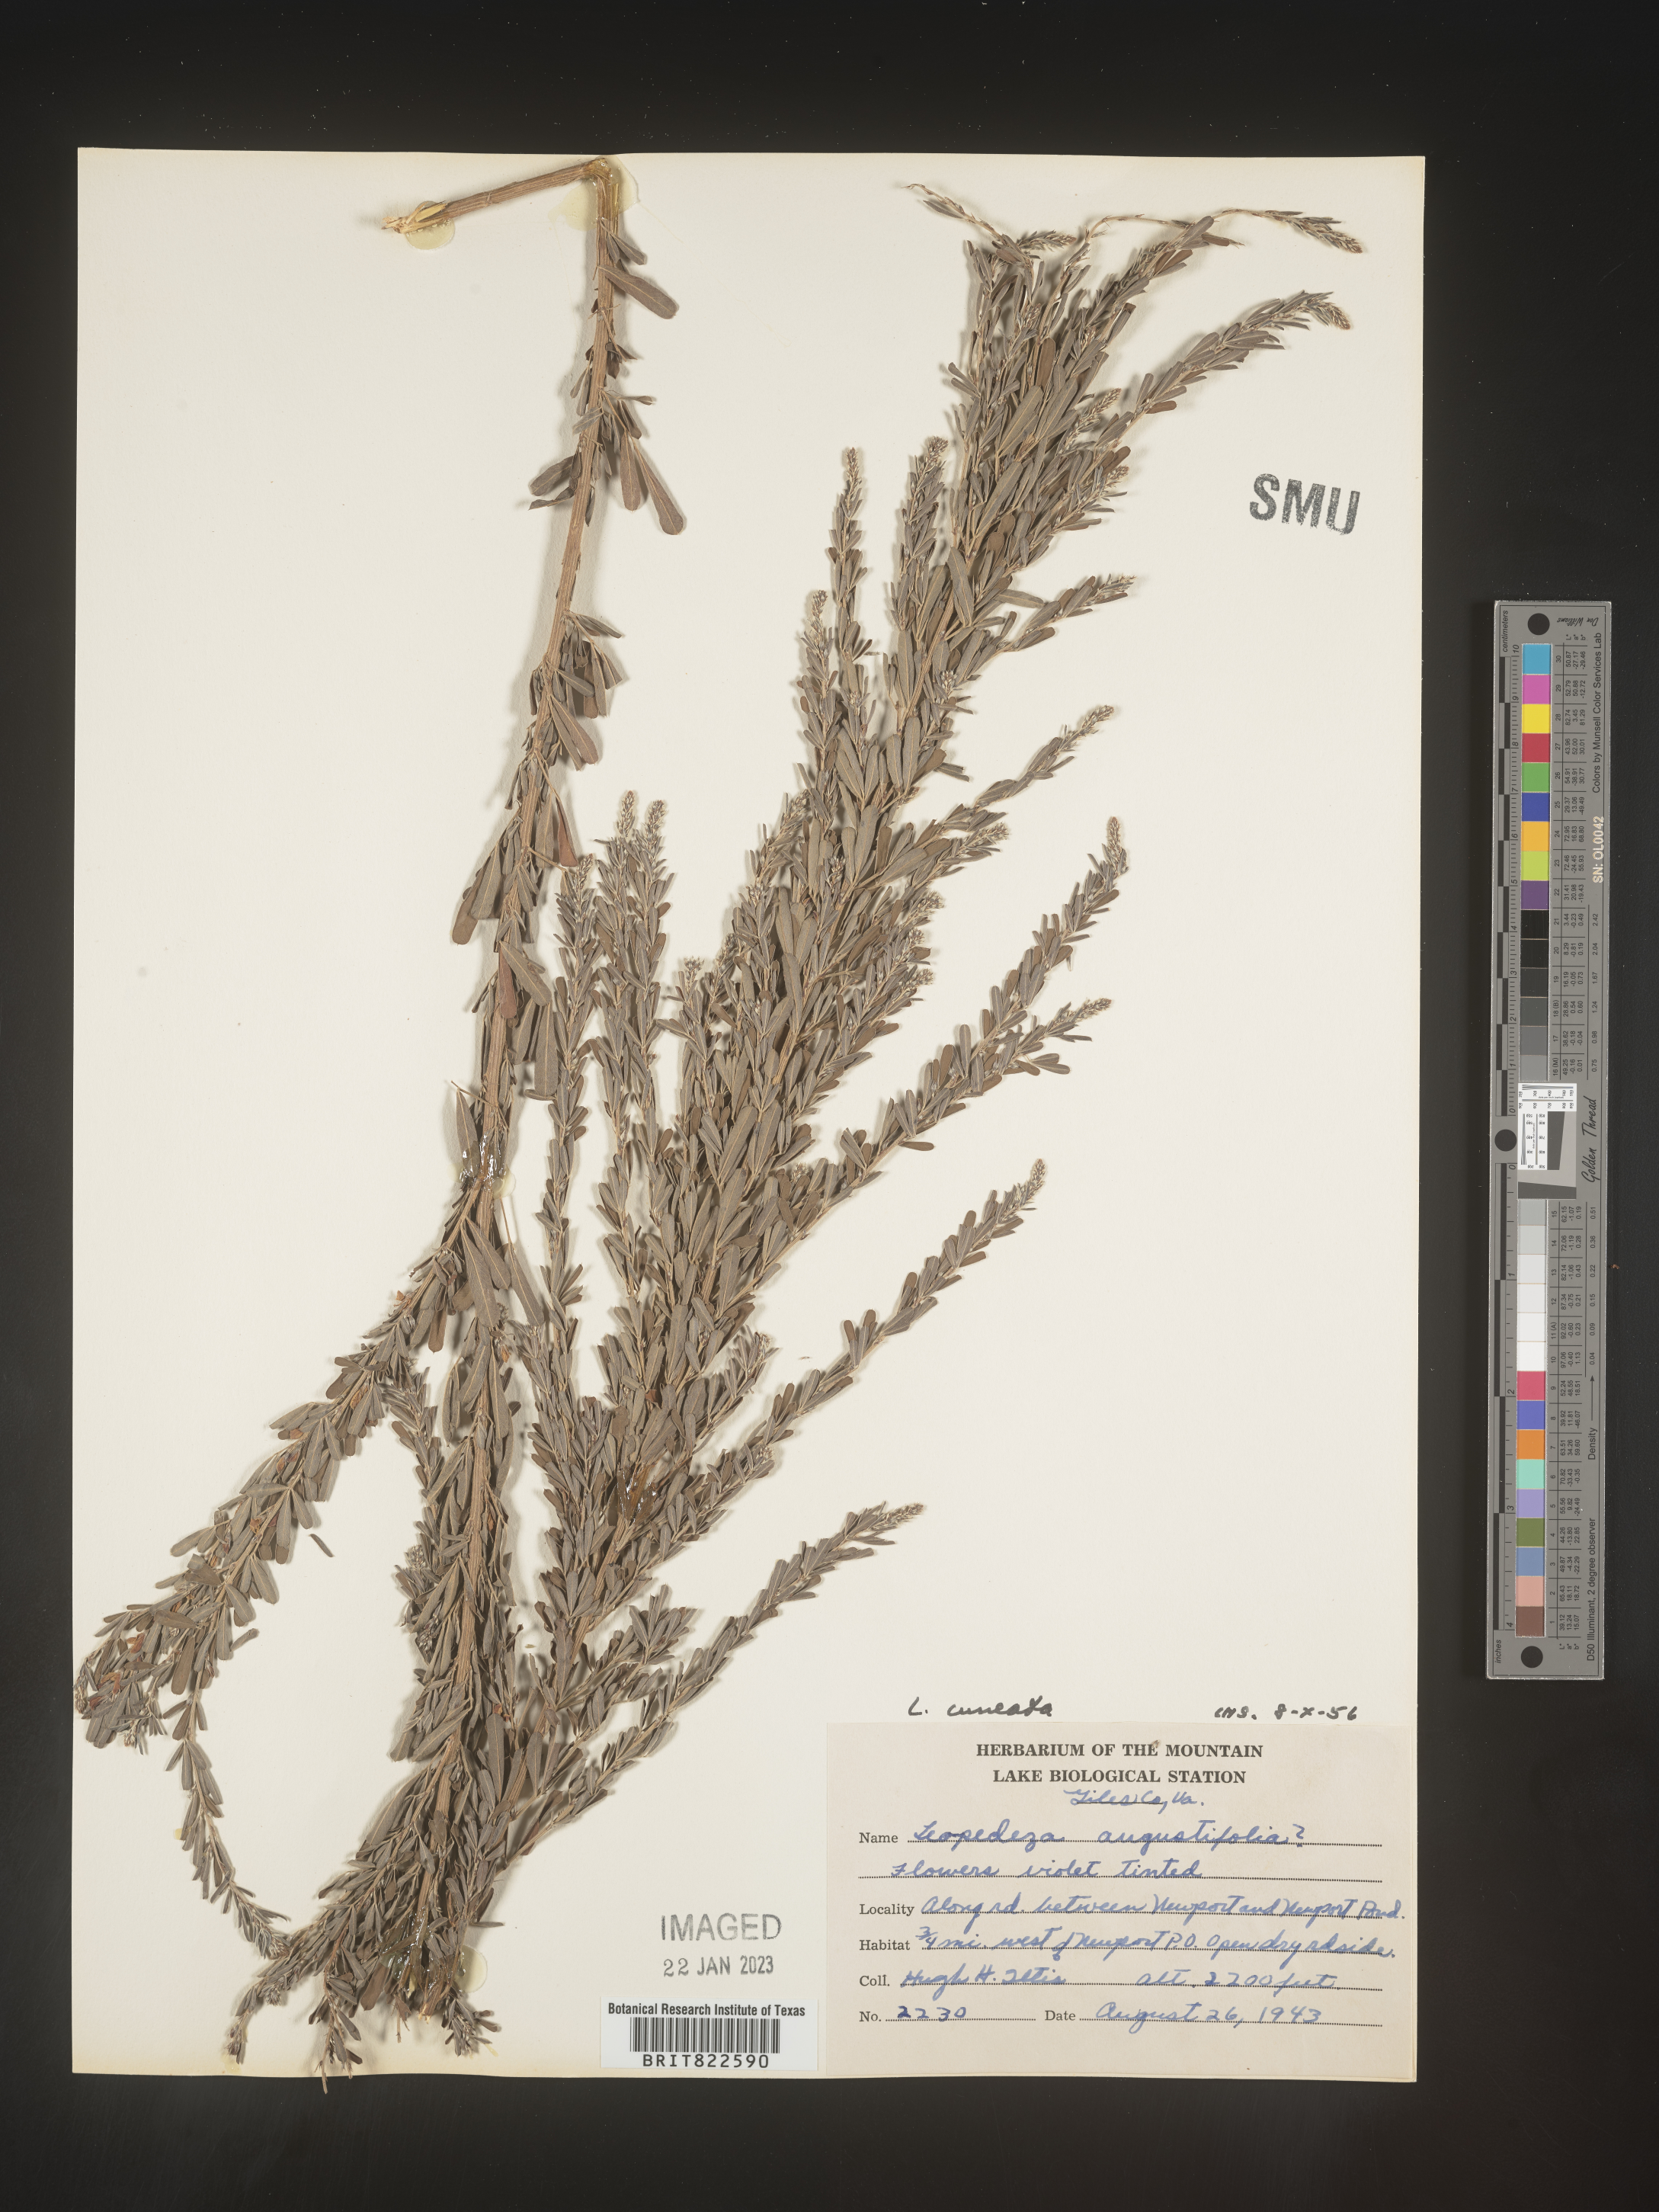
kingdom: Plantae
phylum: Tracheophyta
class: Magnoliopsida
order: Fabales
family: Fabaceae
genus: Lespedeza
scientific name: Lespedeza cuneata
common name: Chinese bush-clover
